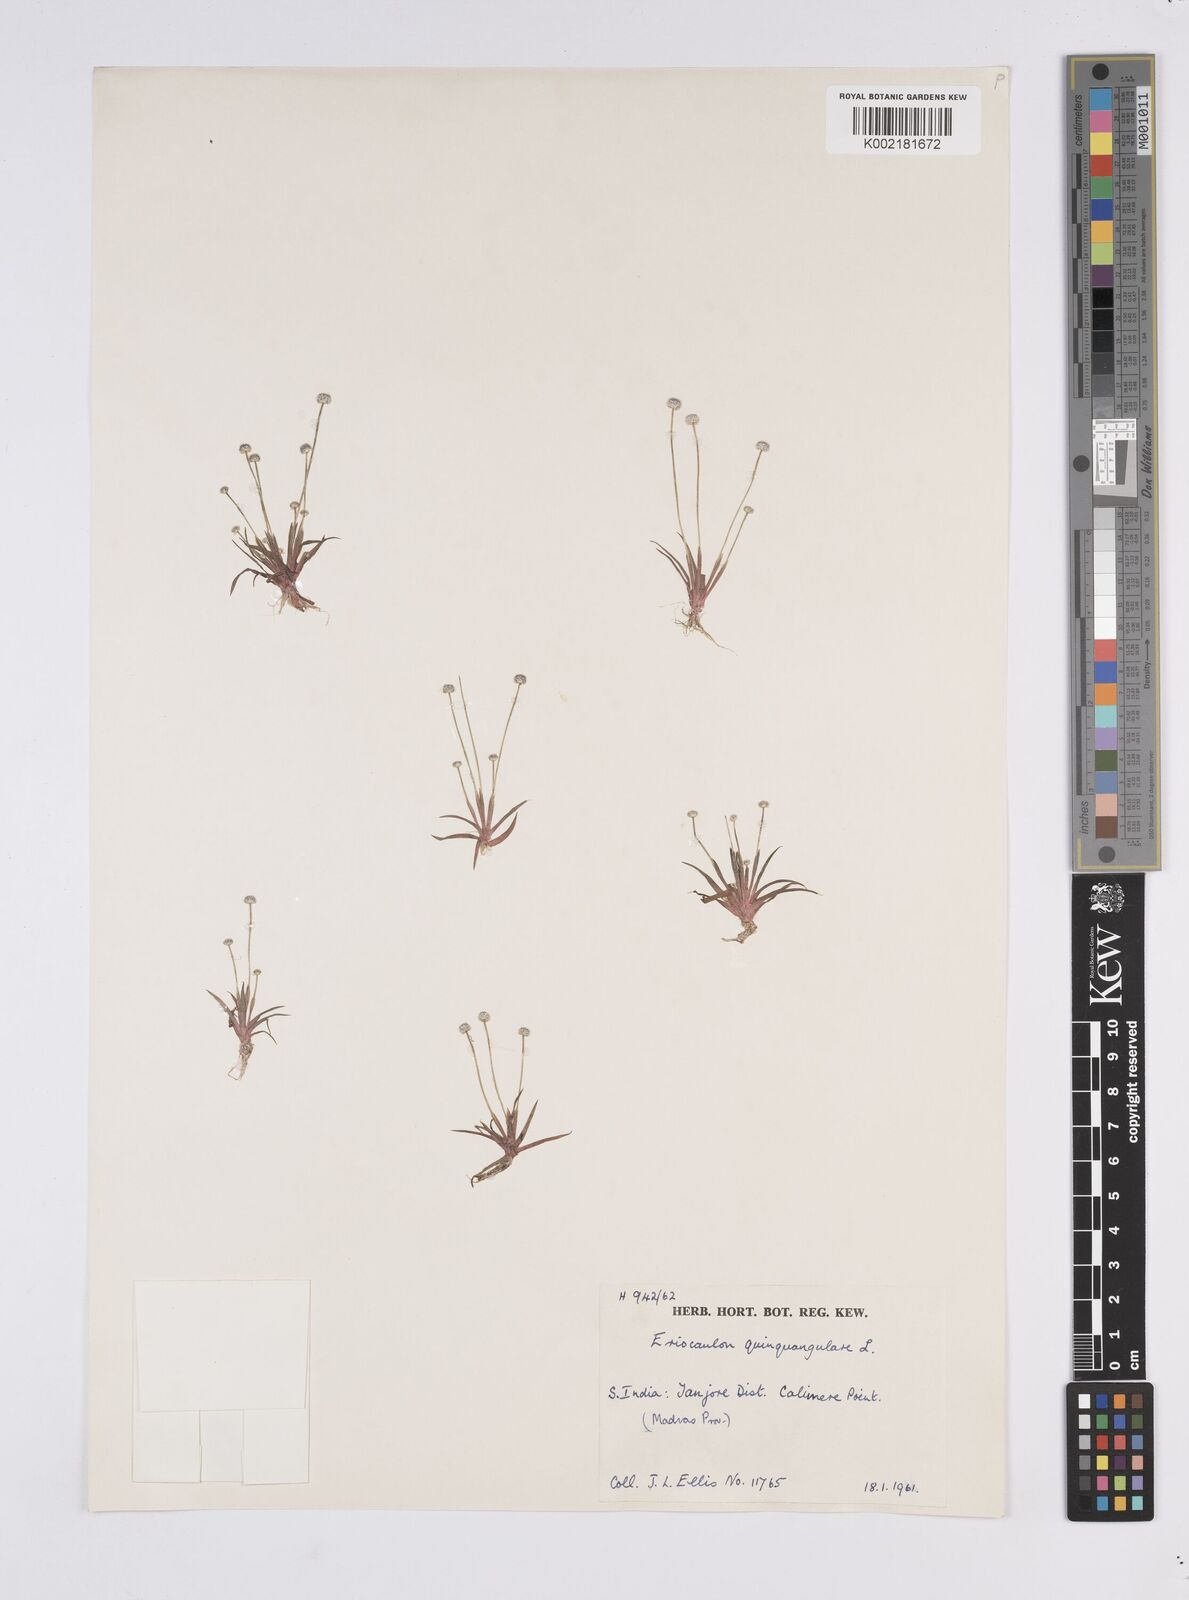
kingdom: Plantae
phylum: Tracheophyta
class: Liliopsida
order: Poales
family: Eriocaulaceae
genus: Eriocaulon
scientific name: Eriocaulon quinquangulare
